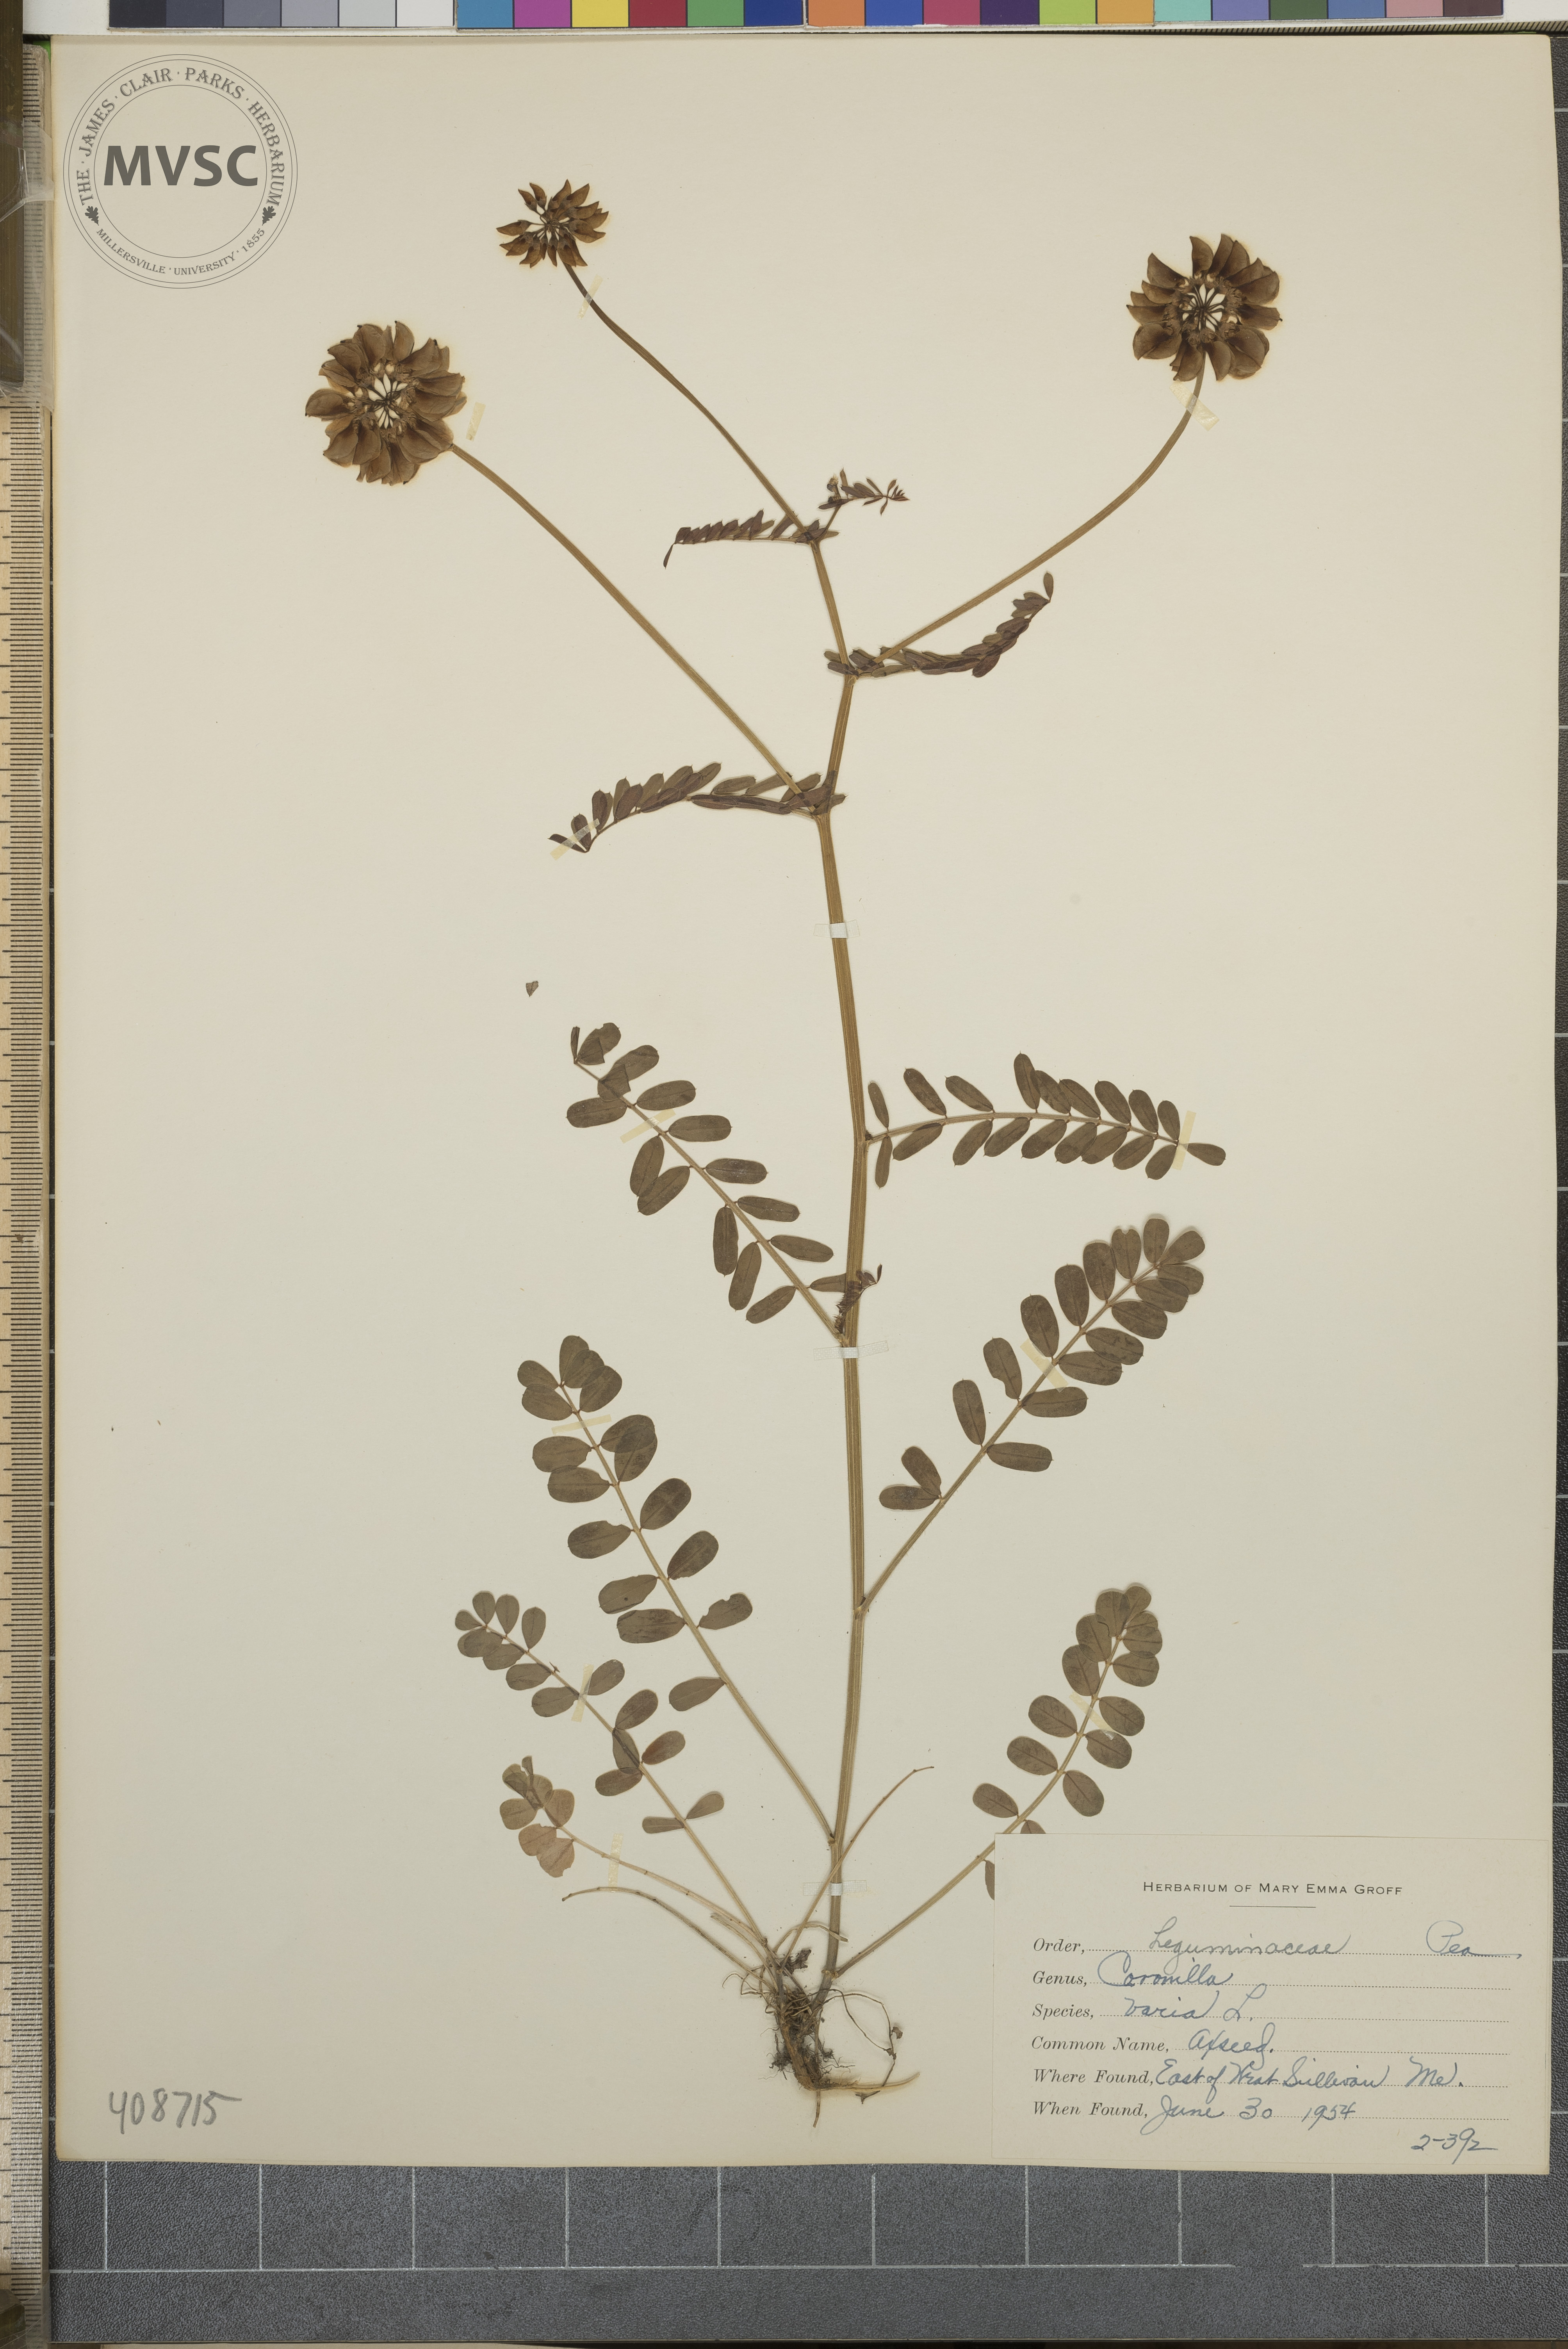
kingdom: Plantae
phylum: Tracheophyta
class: Magnoliopsida
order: Fabales
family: Fabaceae
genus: Coronilla
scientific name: Coronilla varia
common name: Axseed
